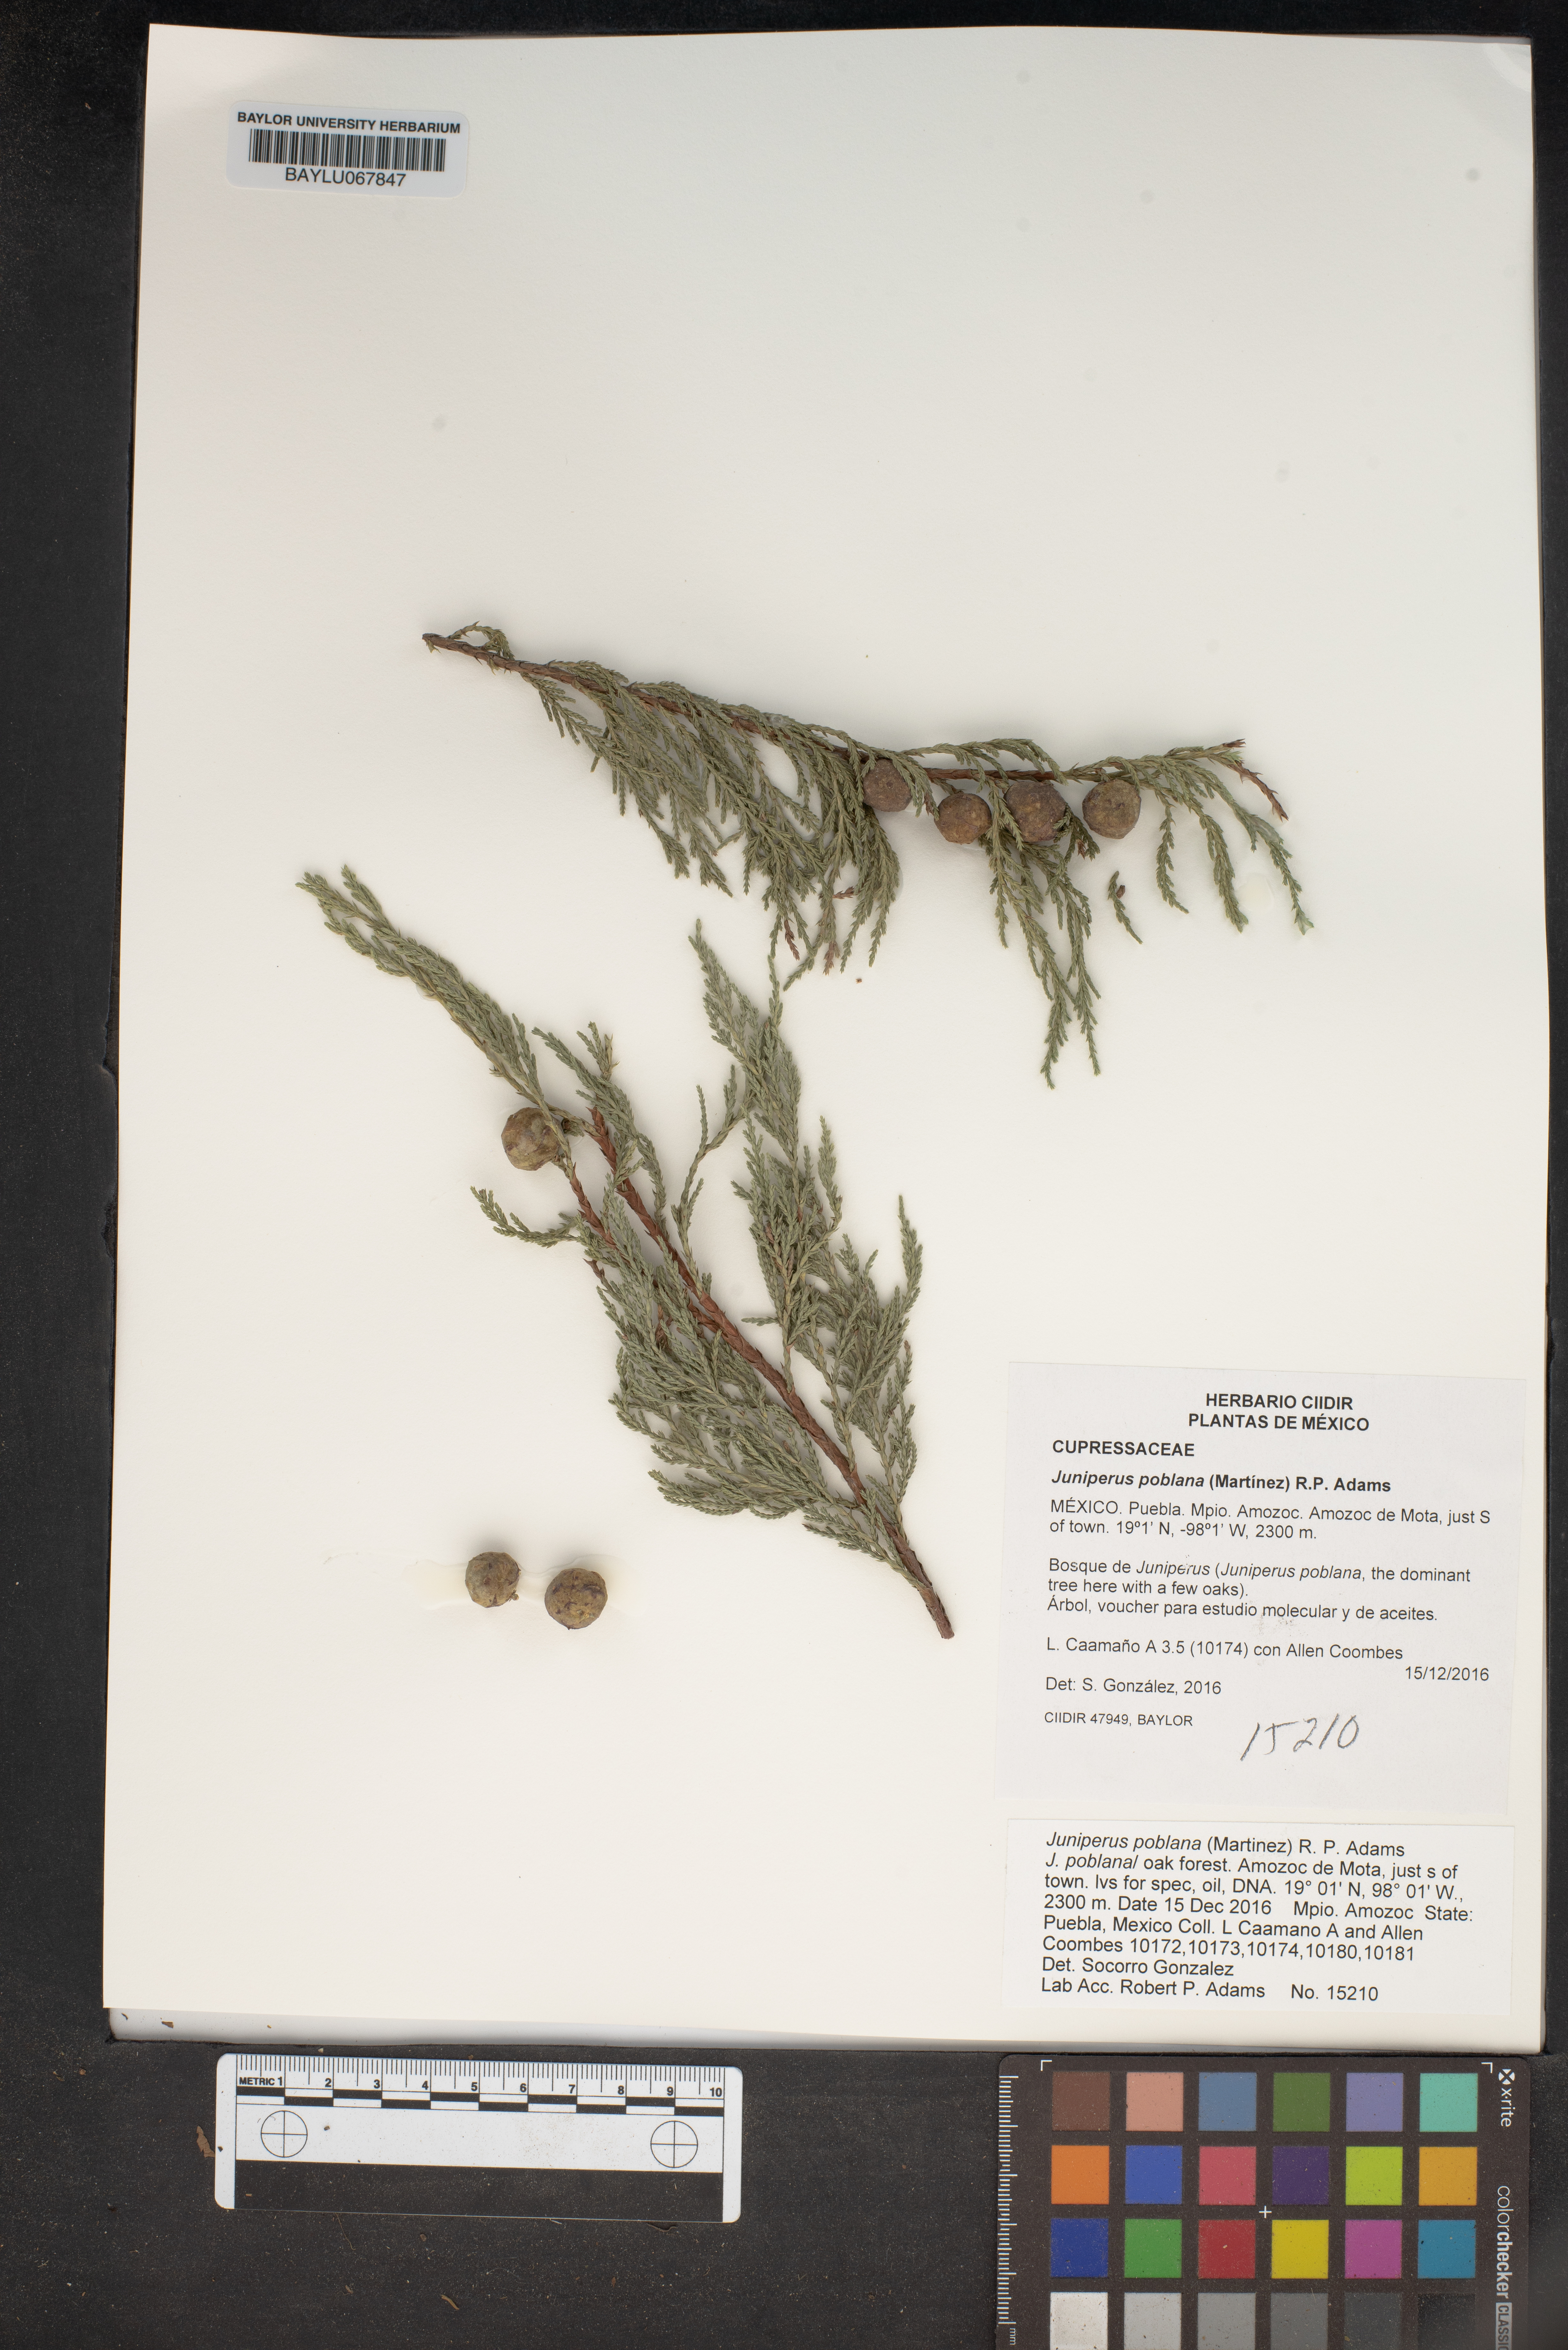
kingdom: Plantae
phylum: Tracheophyta
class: Pinopsida
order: Pinales
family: Cupressaceae
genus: Juniperus
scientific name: Juniperus flaccida
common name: Drooping juniper
